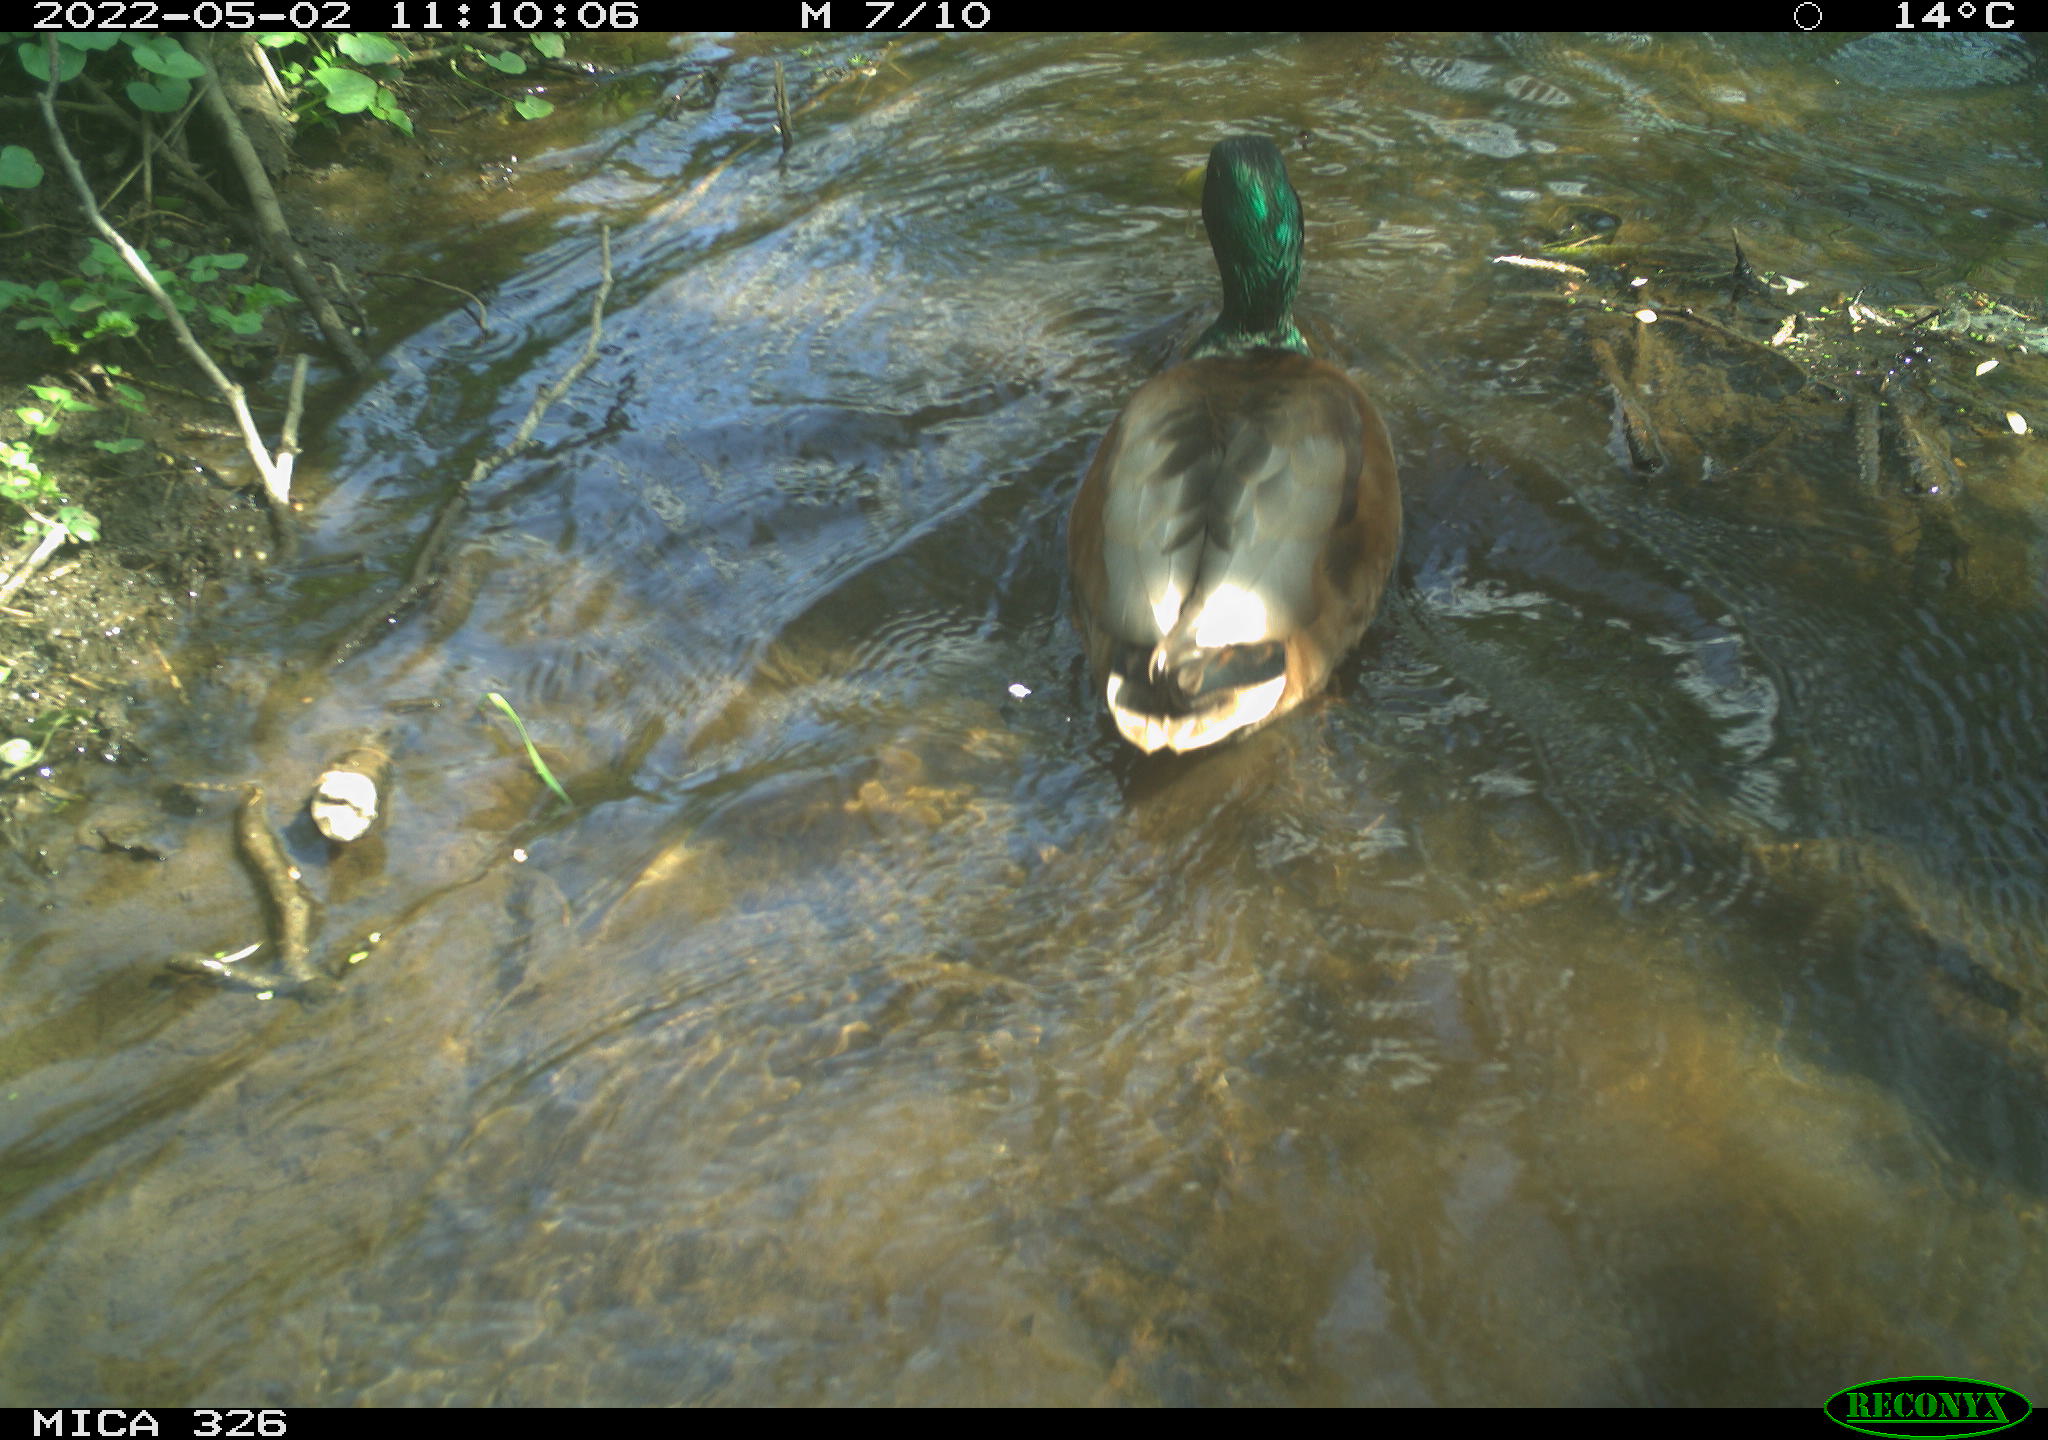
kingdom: Animalia
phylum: Chordata
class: Aves
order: Anseriformes
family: Anatidae
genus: Anas
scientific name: Anas platyrhynchos
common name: Mallard
